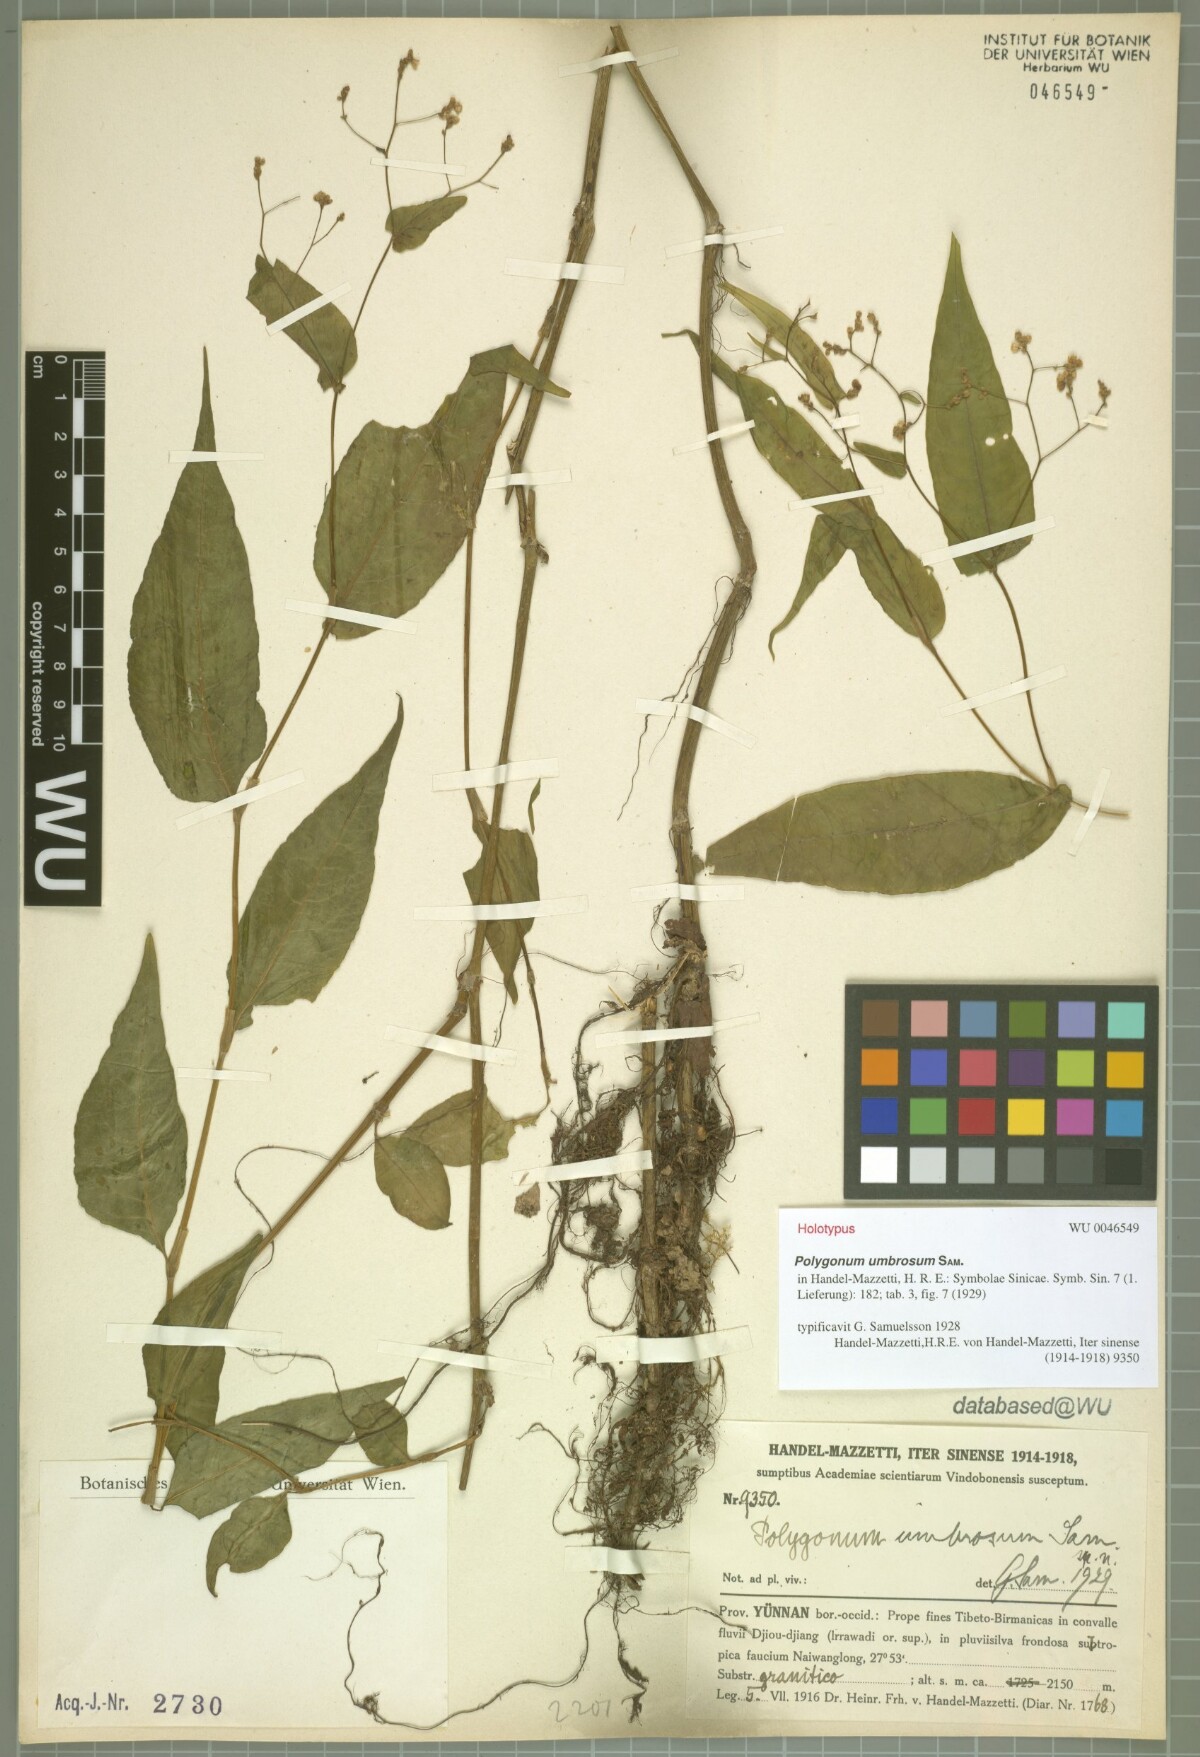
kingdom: Plantae
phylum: Tracheophyta
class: Magnoliopsida
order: Caryophyllales
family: Polygonaceae
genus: Persicaria
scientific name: Persicaria umbrosa
